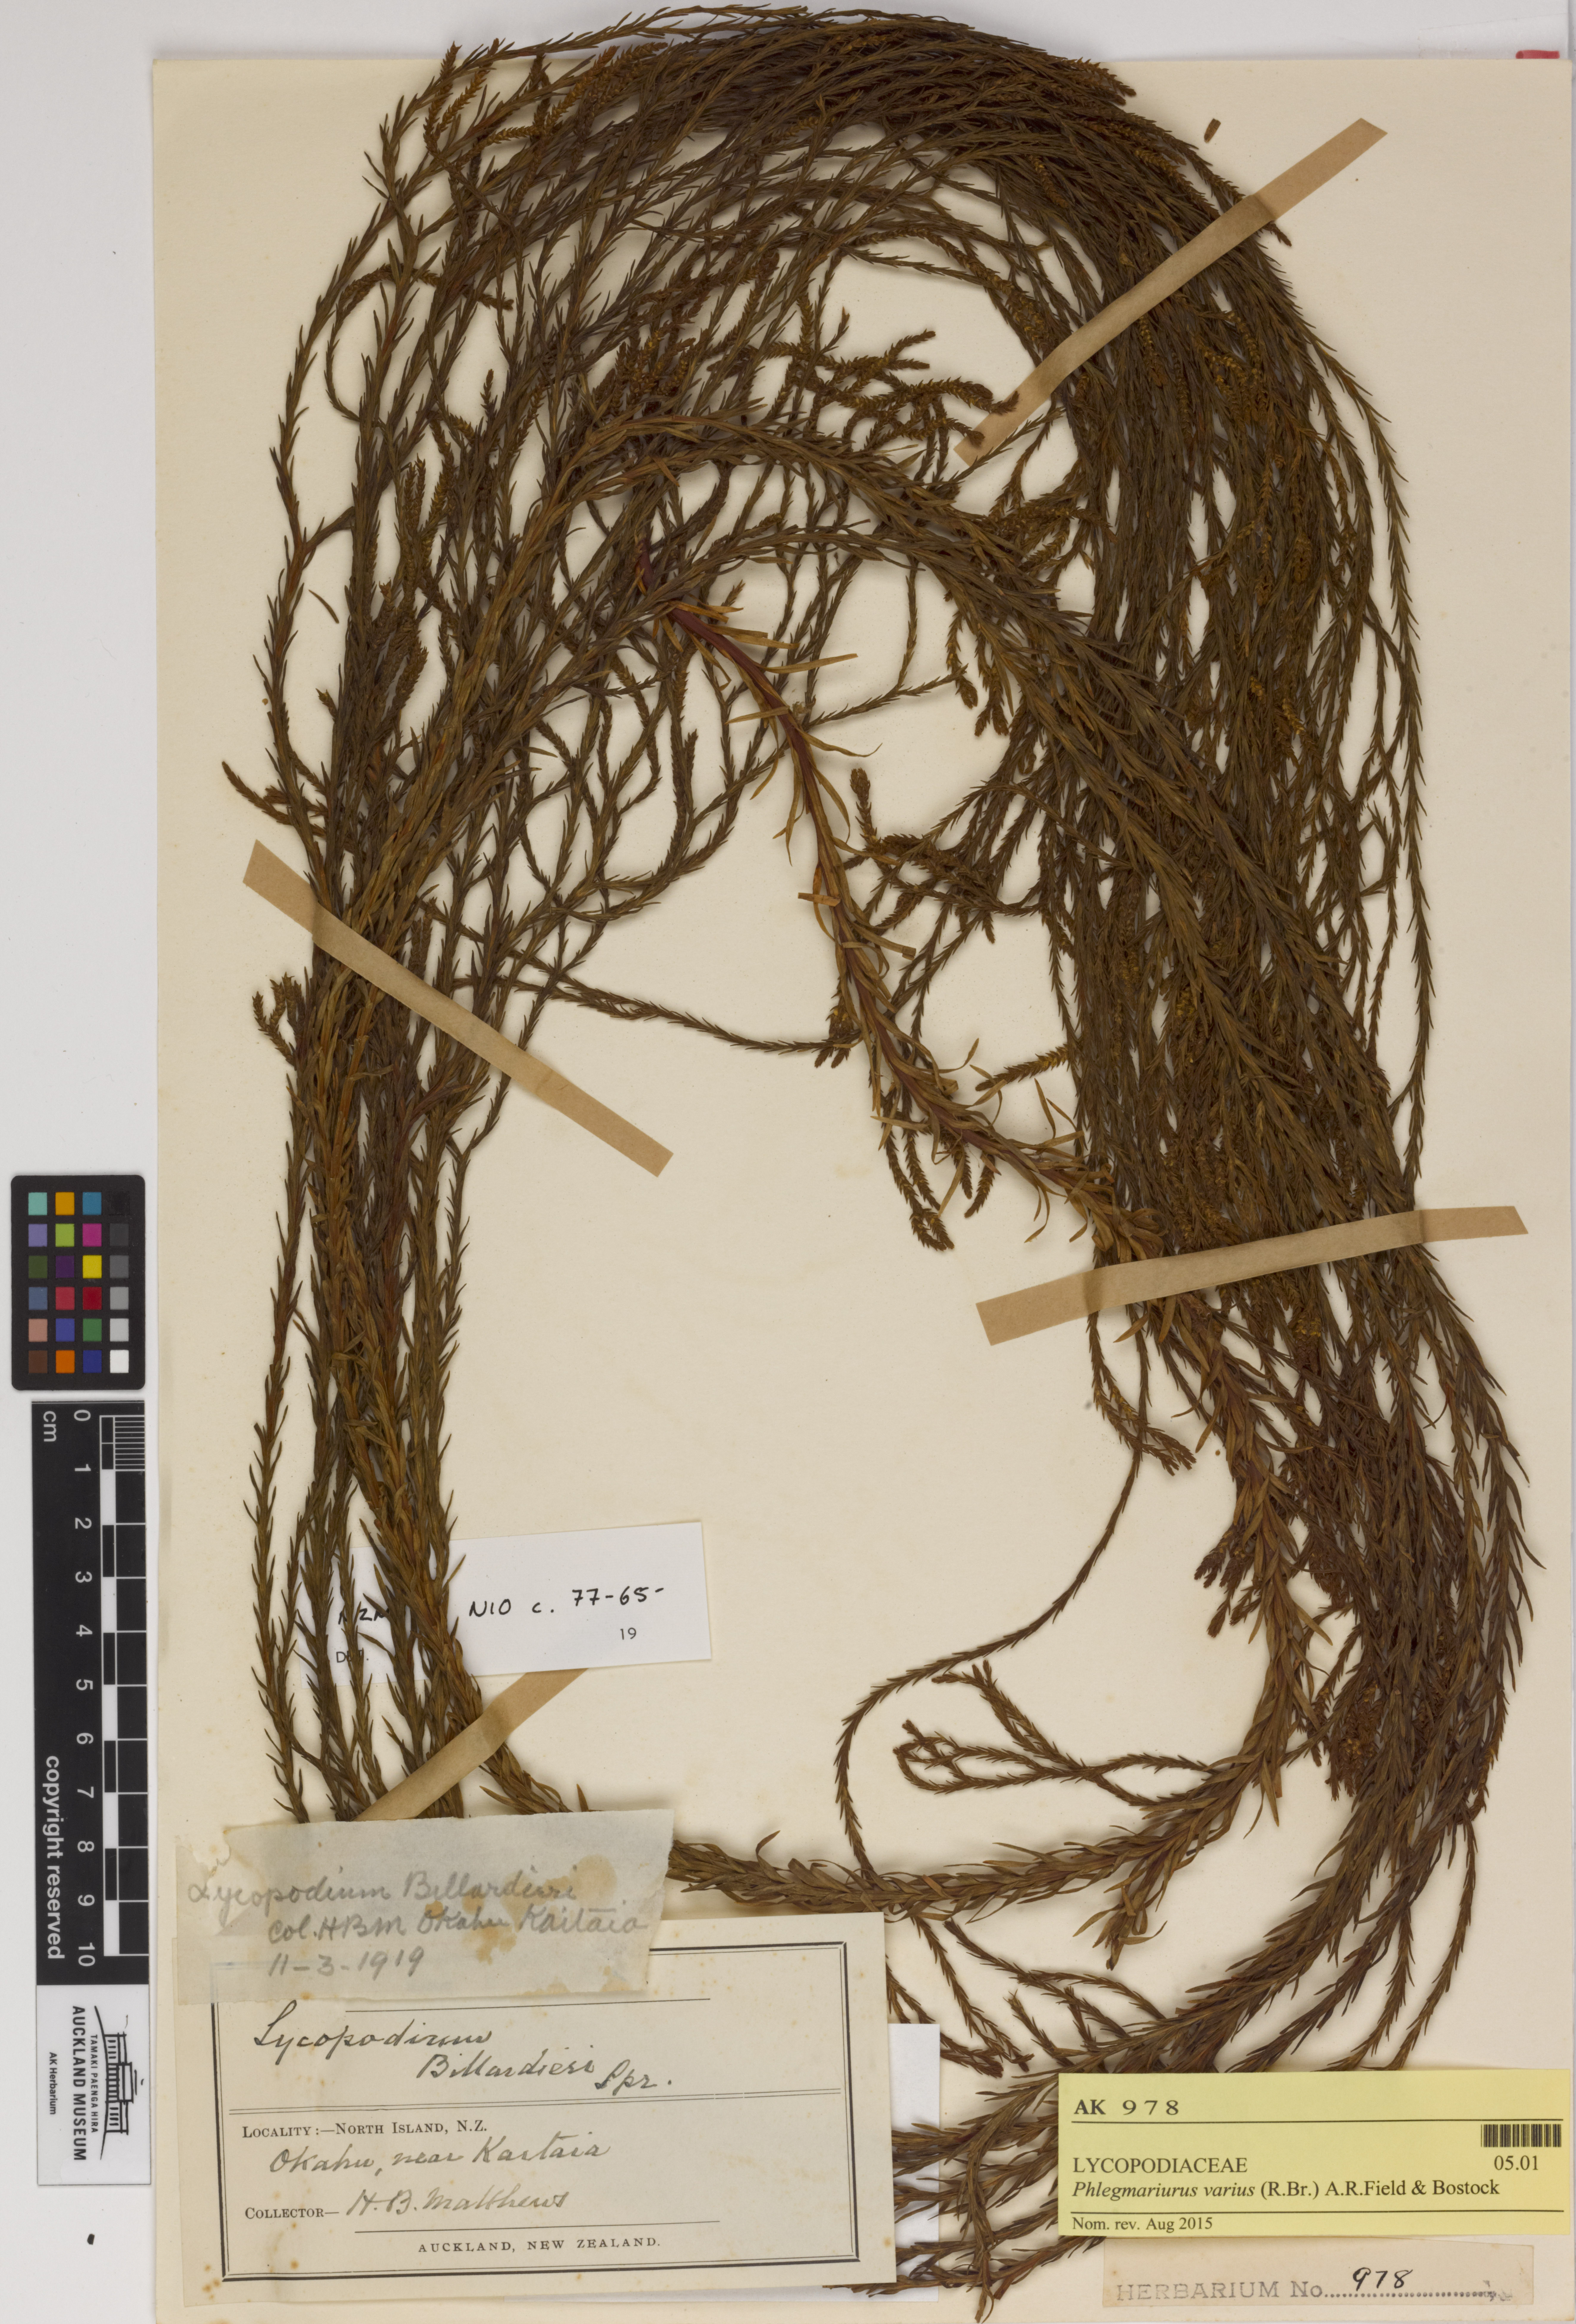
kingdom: Plantae
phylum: Tracheophyta
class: Lycopodiopsida
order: Lycopodiales
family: Lycopodiaceae
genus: Phlegmariurus
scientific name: Phlegmariurus billardierei
